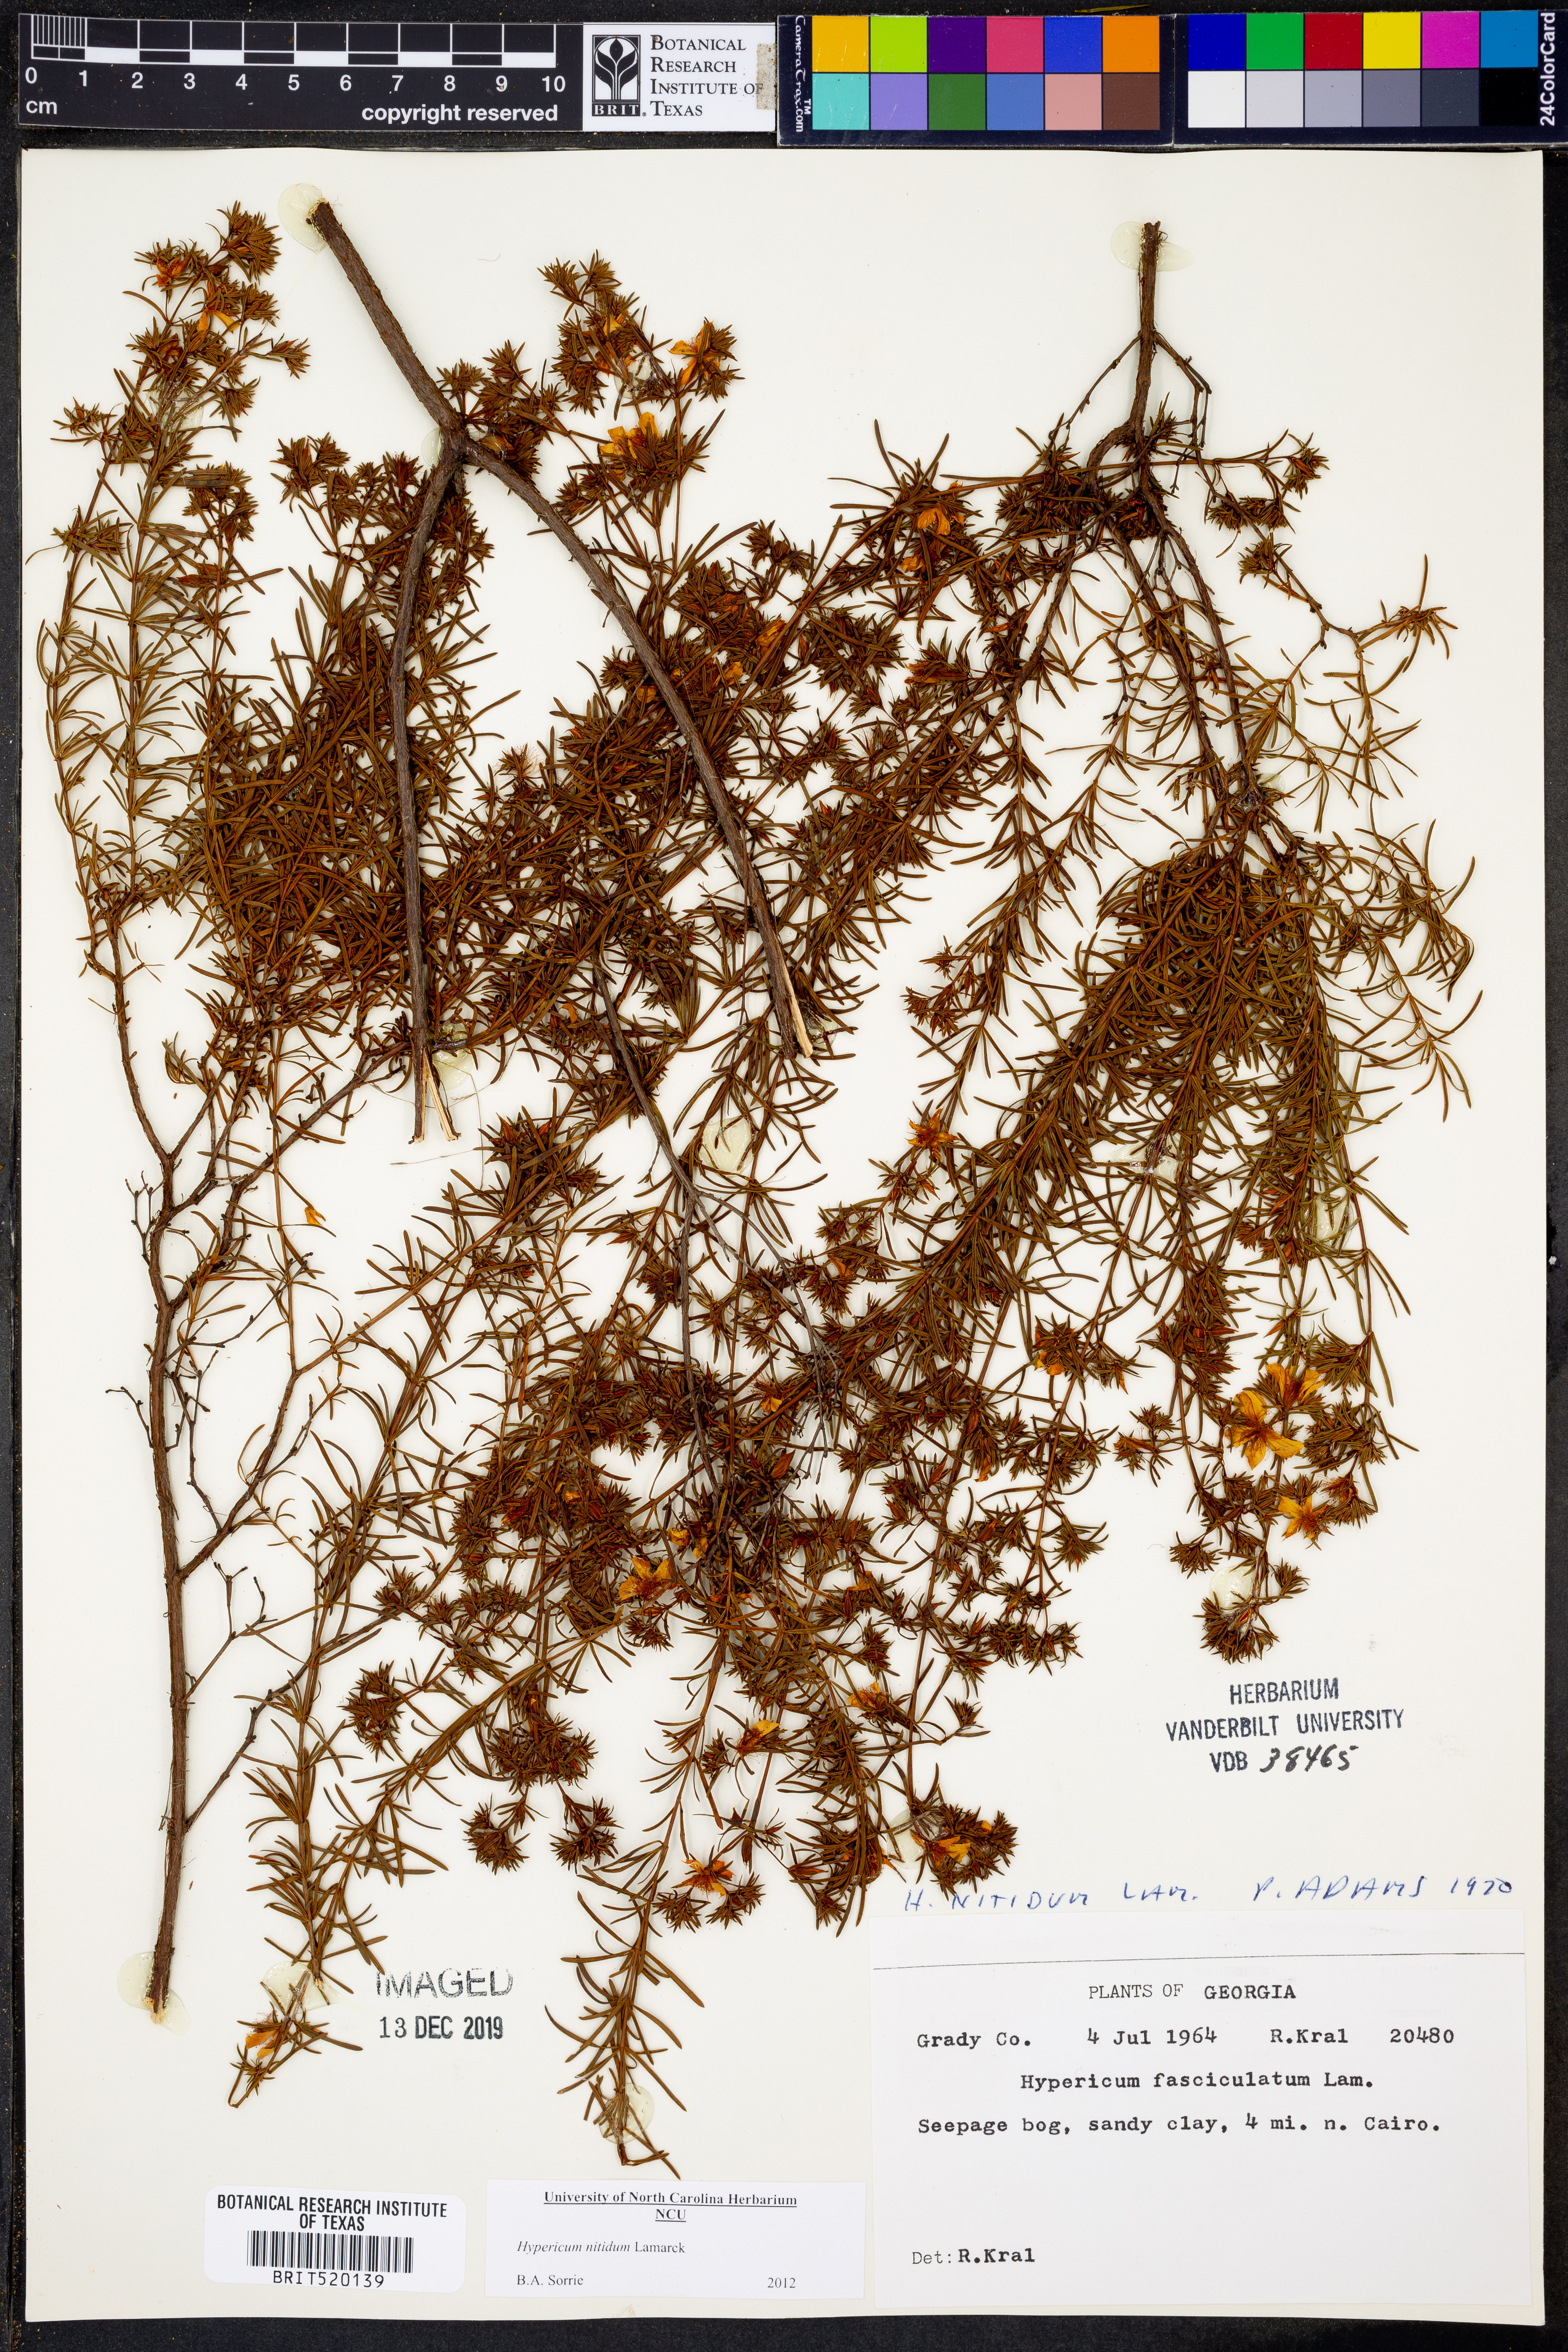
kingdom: Plantae
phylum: Tracheophyta
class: Magnoliopsida
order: Malpighiales
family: Hypericaceae
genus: Hypericum
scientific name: Hypericum nitidum
